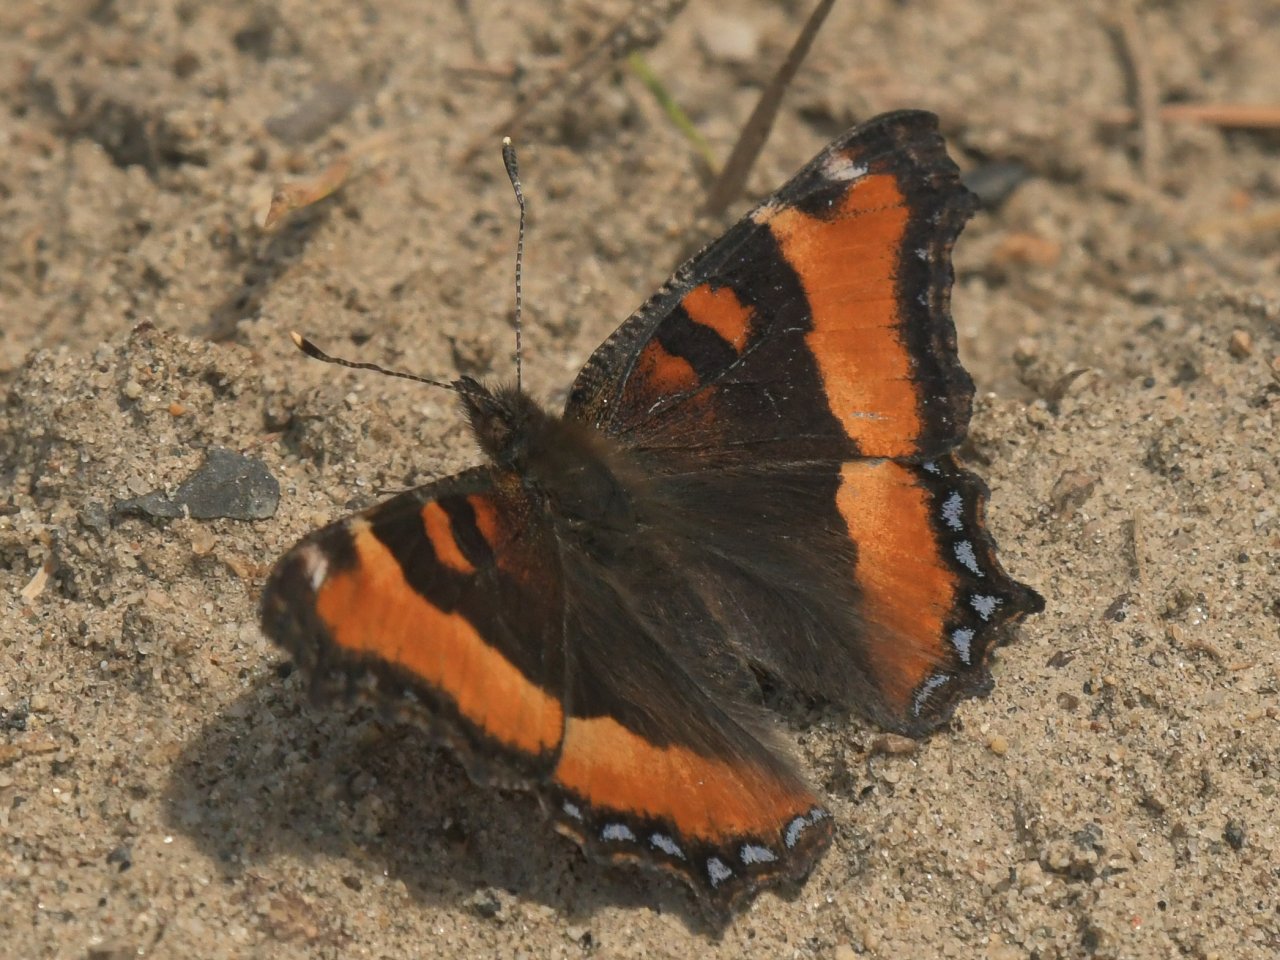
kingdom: Animalia
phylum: Arthropoda
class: Insecta
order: Lepidoptera
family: Nymphalidae
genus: Aglais
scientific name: Aglais milberti
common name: Milbert's Tortoiseshell
